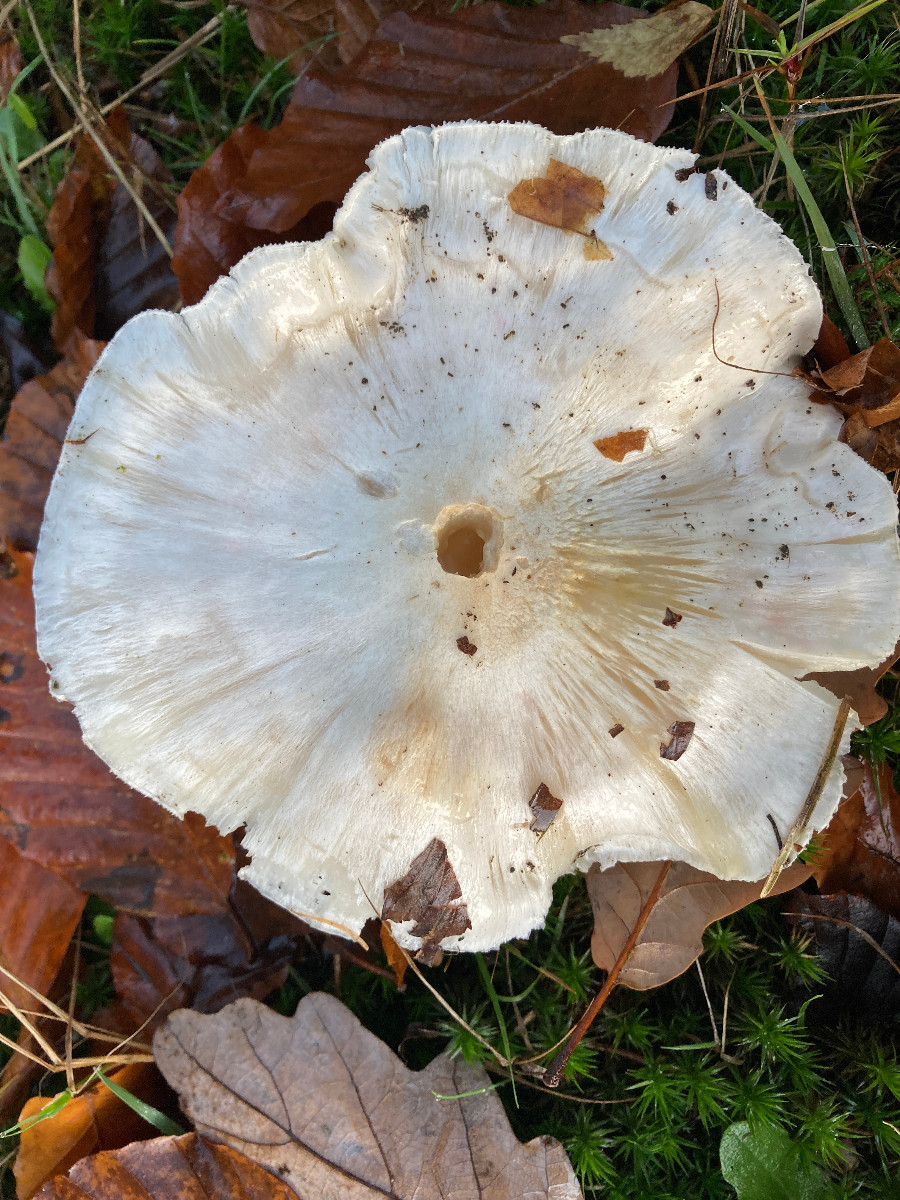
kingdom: Fungi
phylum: Basidiomycota
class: Agaricomycetes
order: Agaricales
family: Tricholomataceae
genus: Tricholoma
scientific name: Tricholoma columbetta
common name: silke-ridderhat
